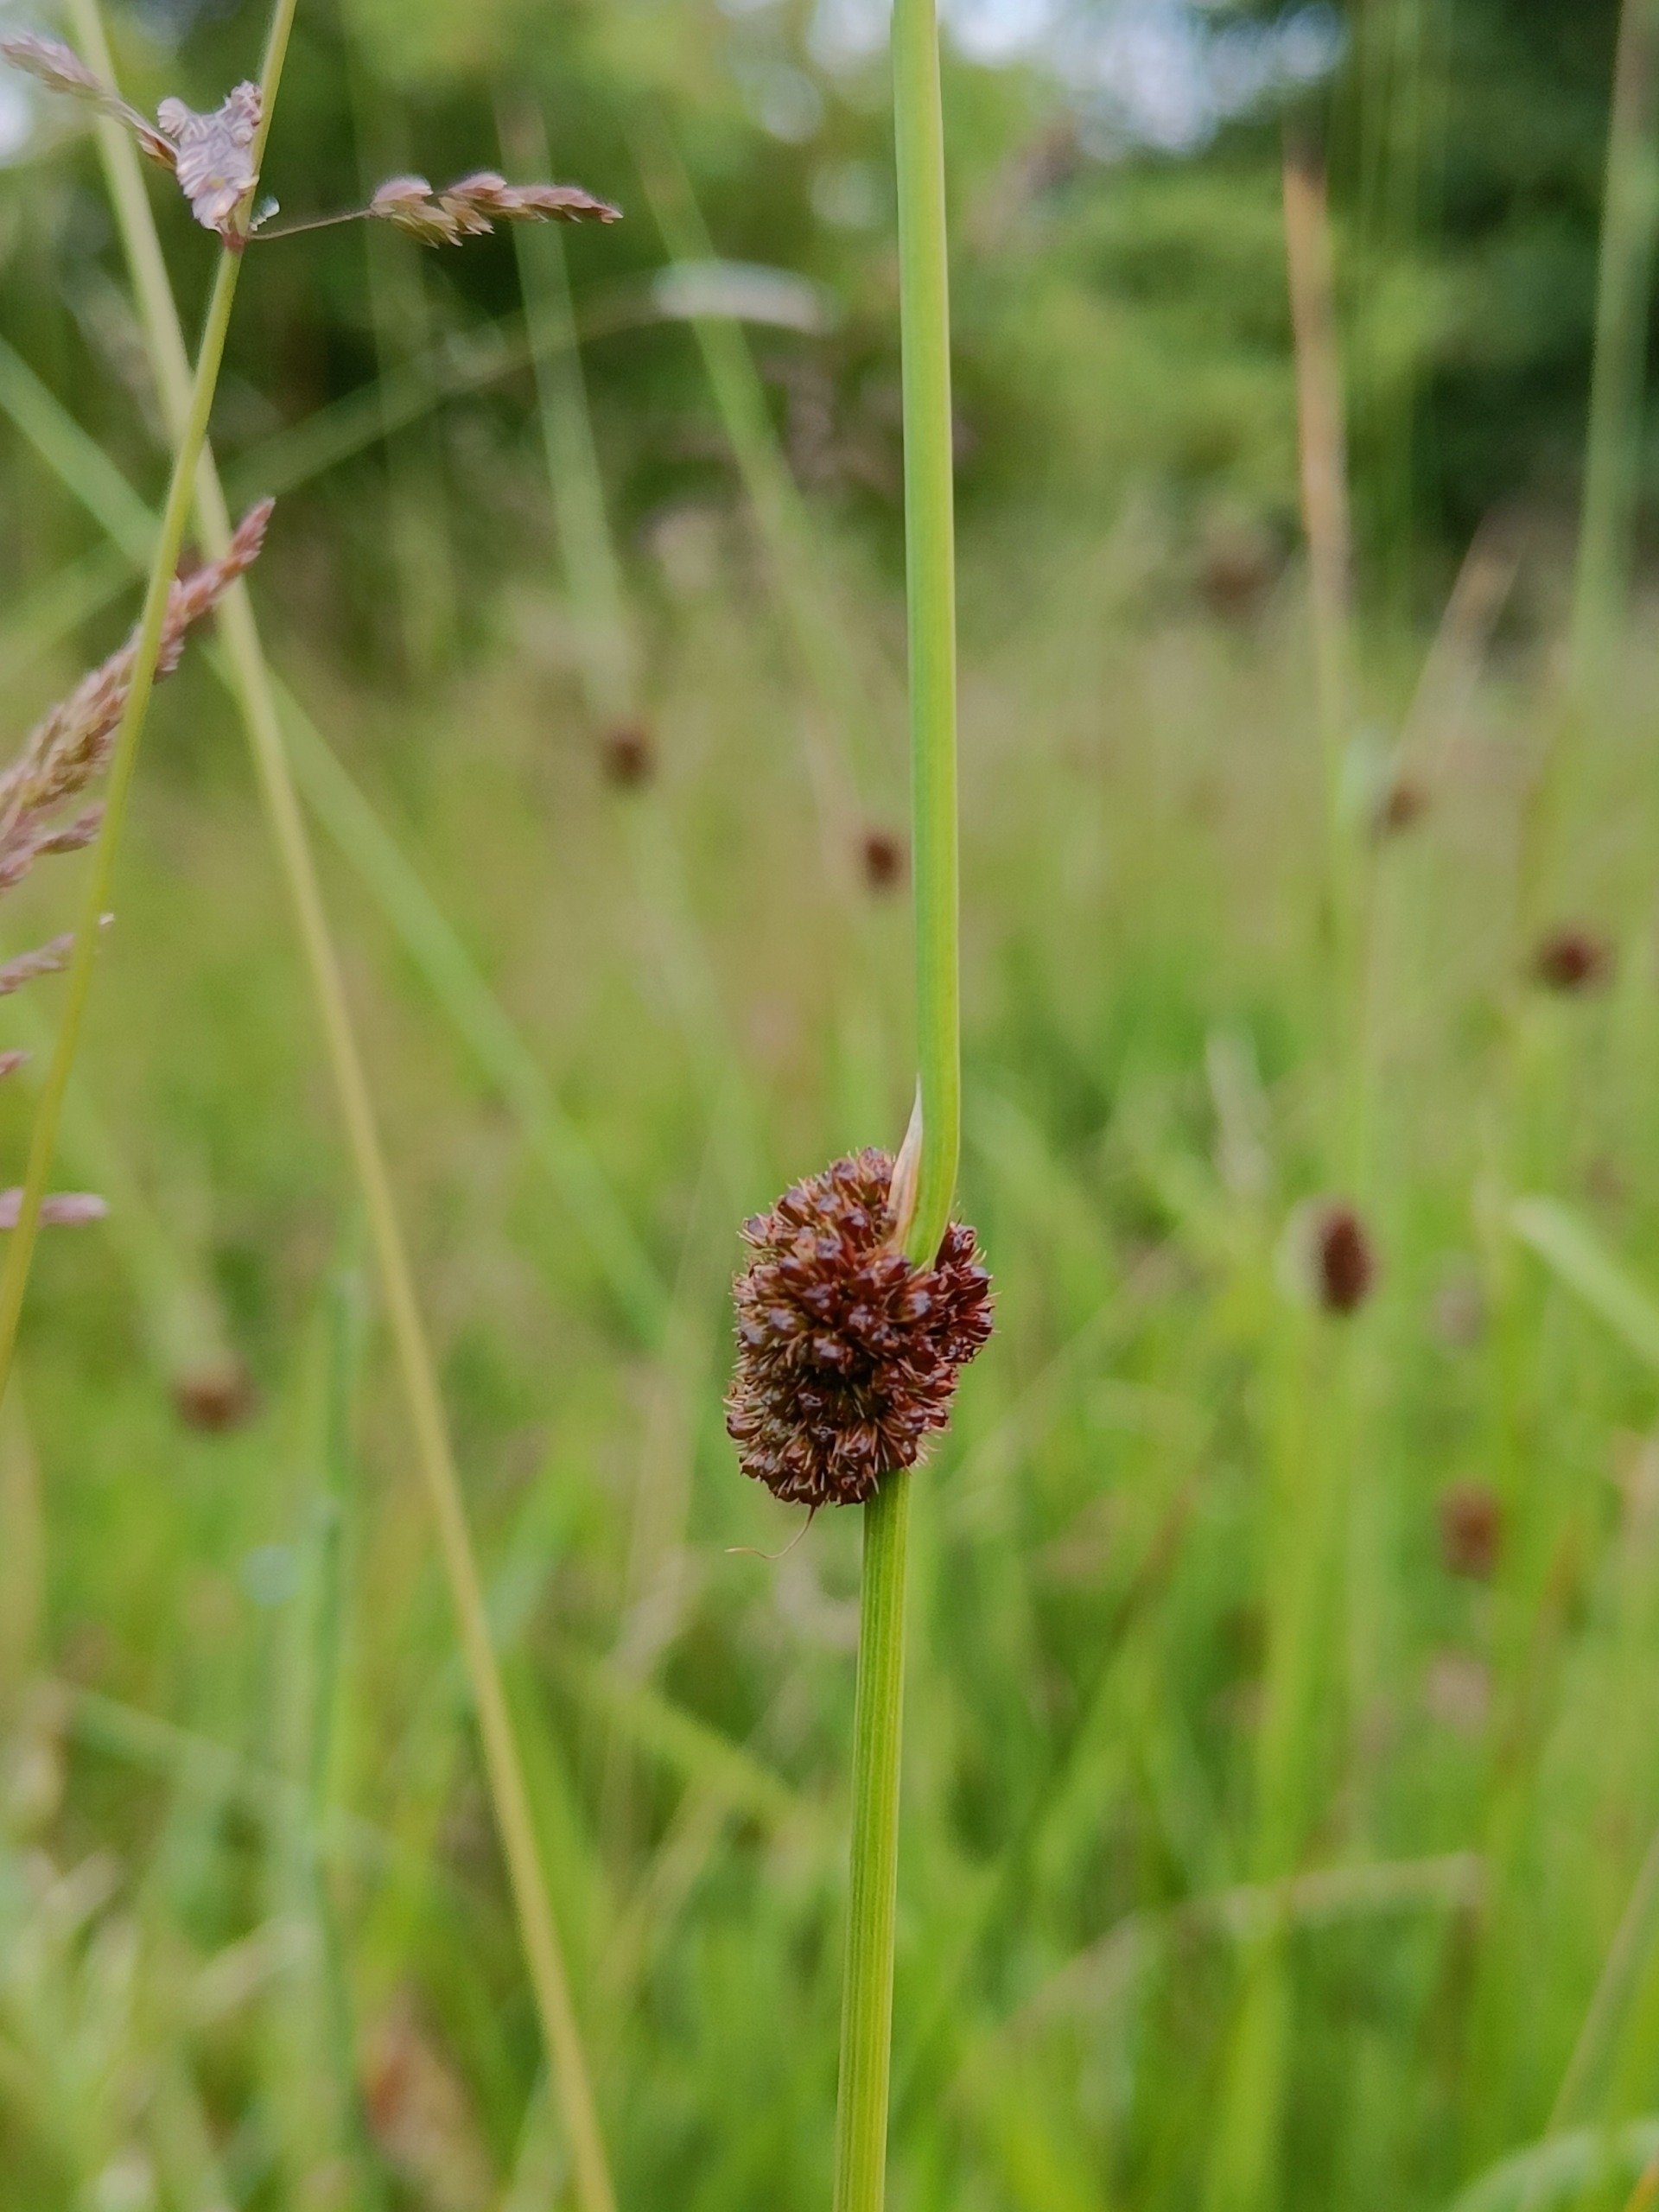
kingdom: Plantae
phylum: Tracheophyta
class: Liliopsida
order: Poales
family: Juncaceae
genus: Juncus
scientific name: Juncus conglomeratus
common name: Knop-siv
